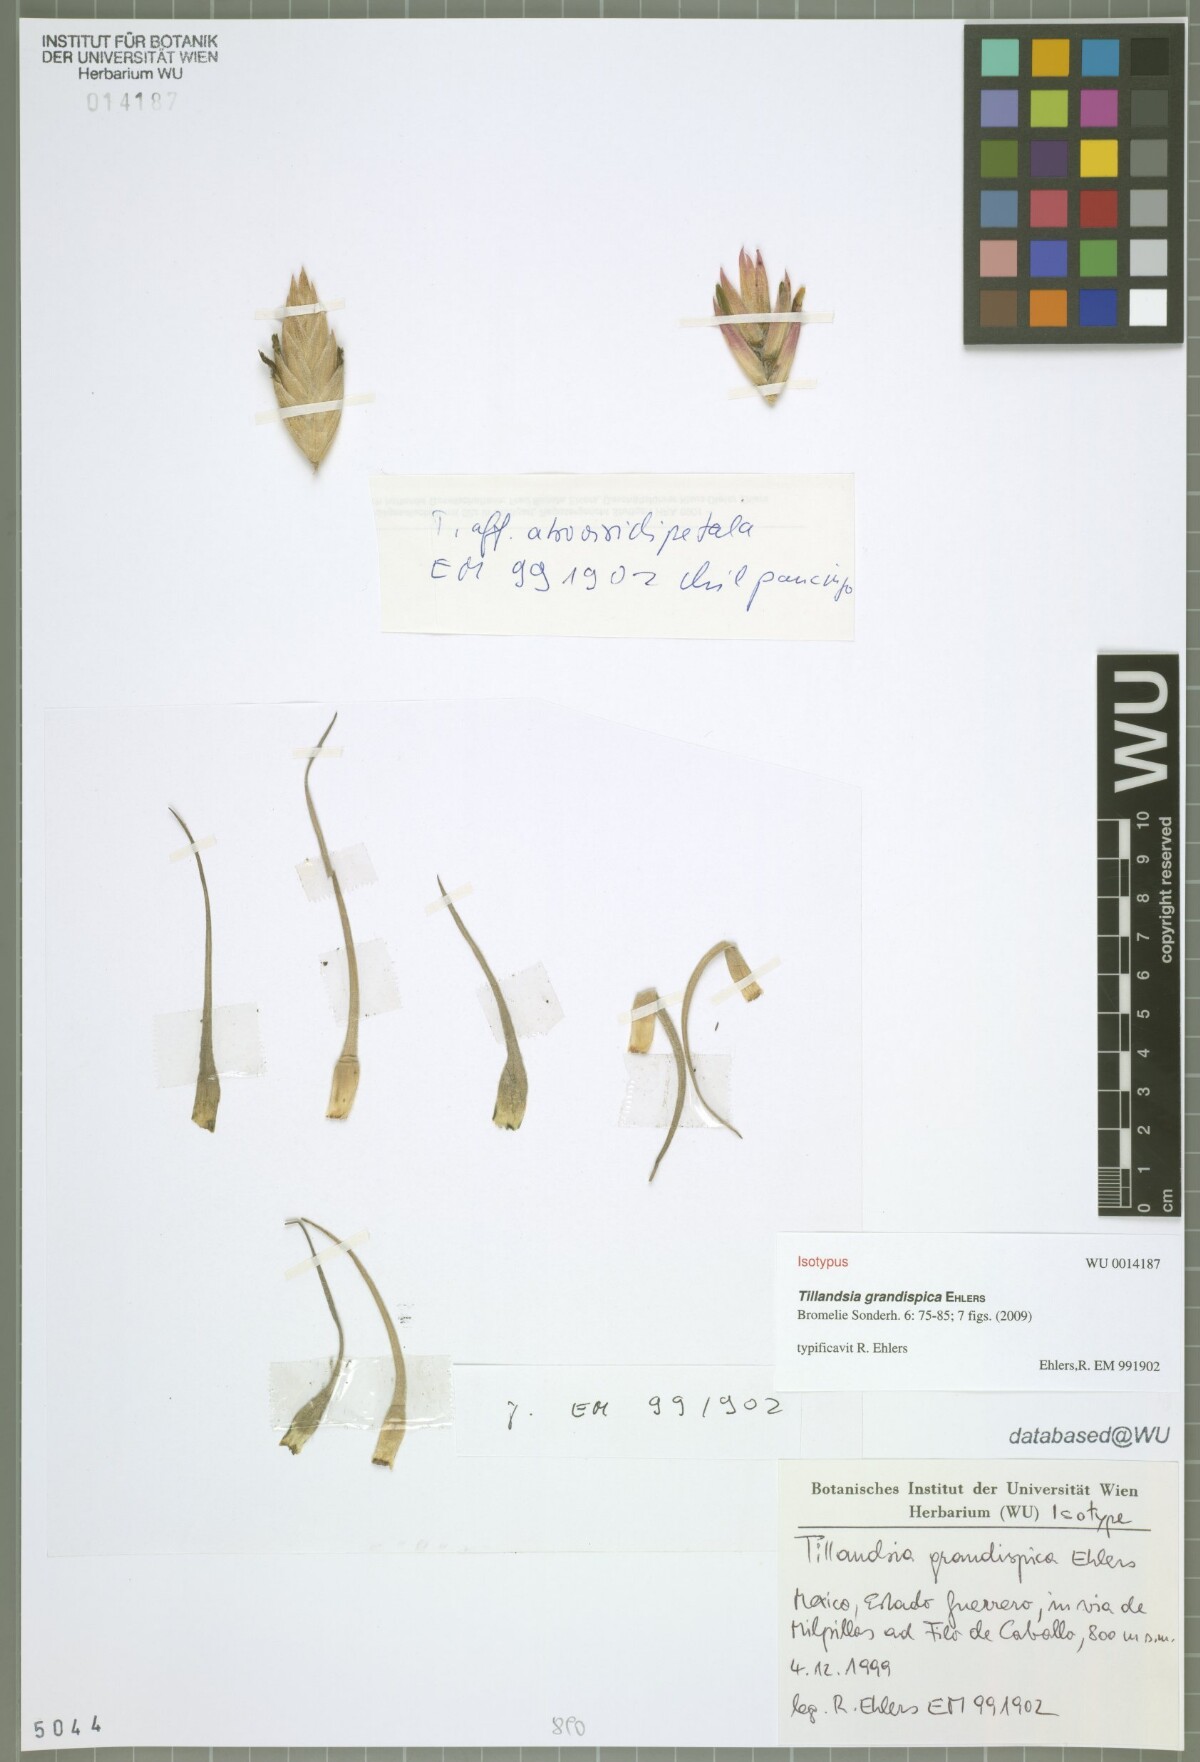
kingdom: Plantae
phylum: Tracheophyta
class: Liliopsida
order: Poales
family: Bromeliaceae
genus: Tillandsia
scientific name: Tillandsia grandispica
